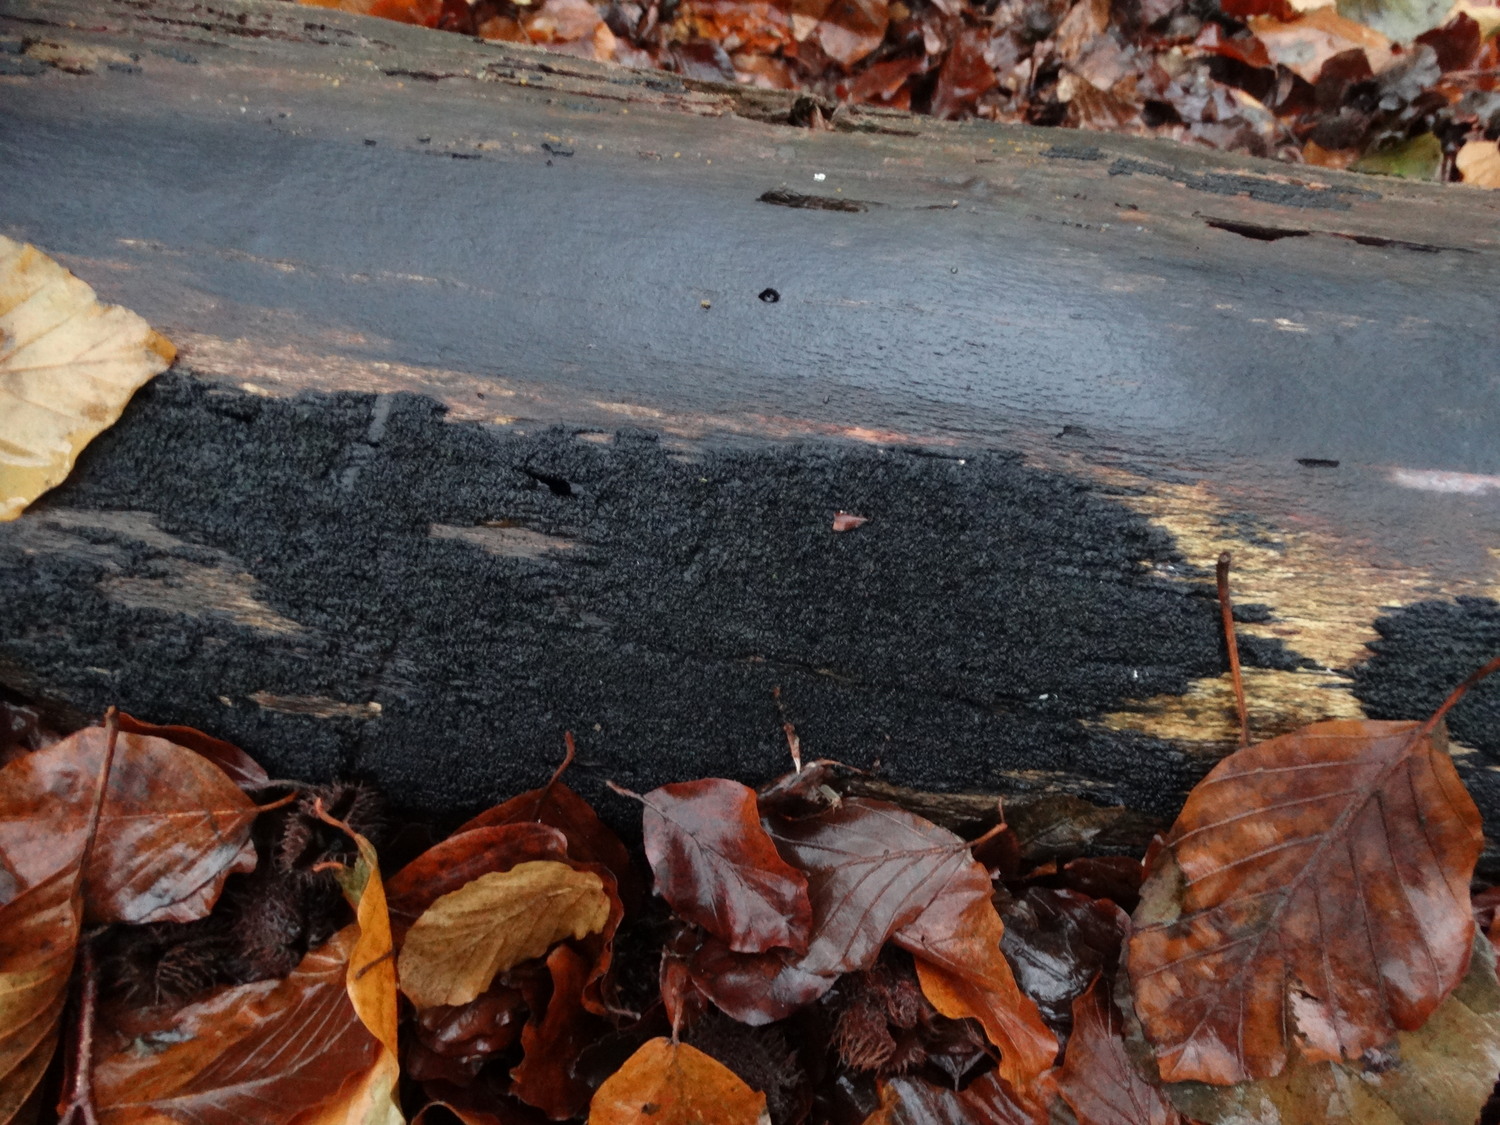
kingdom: Fungi
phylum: Ascomycota
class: Sordariomycetes
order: Xylariales
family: Diatrypaceae
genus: Eutypa
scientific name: Eutypa spinosa
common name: grov kulskorpe
